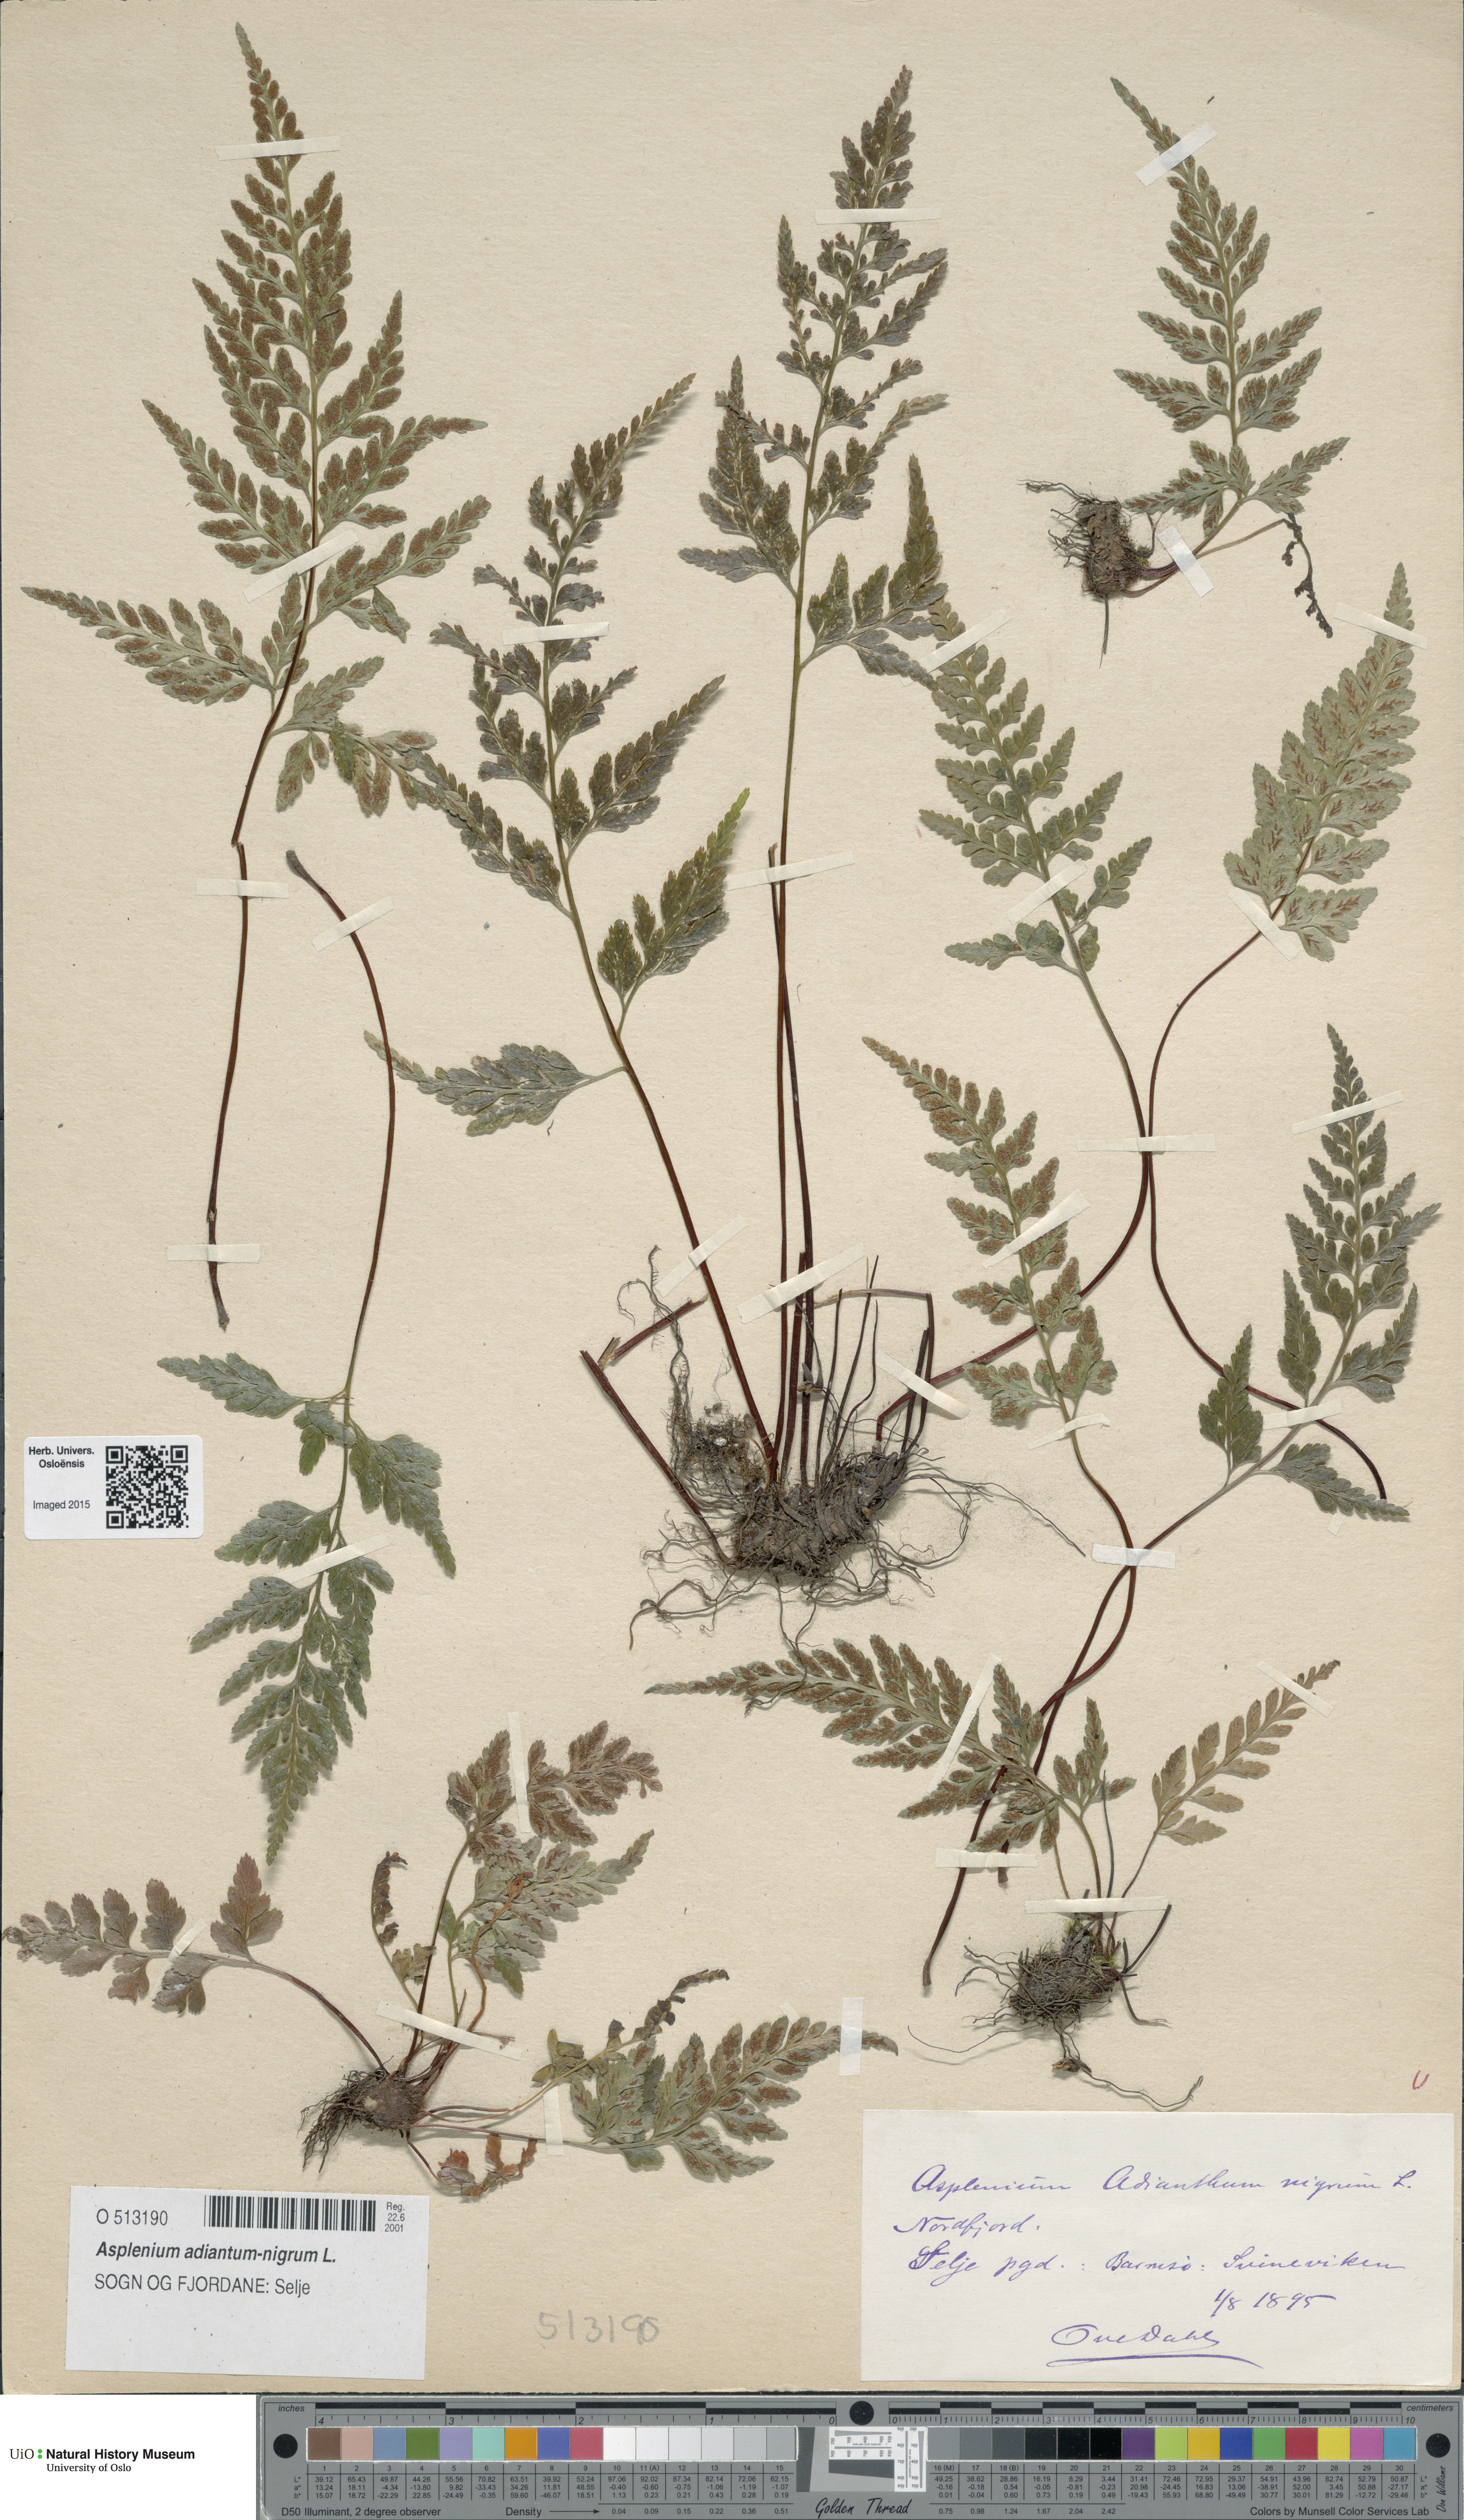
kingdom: Plantae
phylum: Tracheophyta
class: Polypodiopsida
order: Polypodiales
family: Aspleniaceae
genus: Asplenium
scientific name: Asplenium adiantum-nigrum
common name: Black spleenwort
